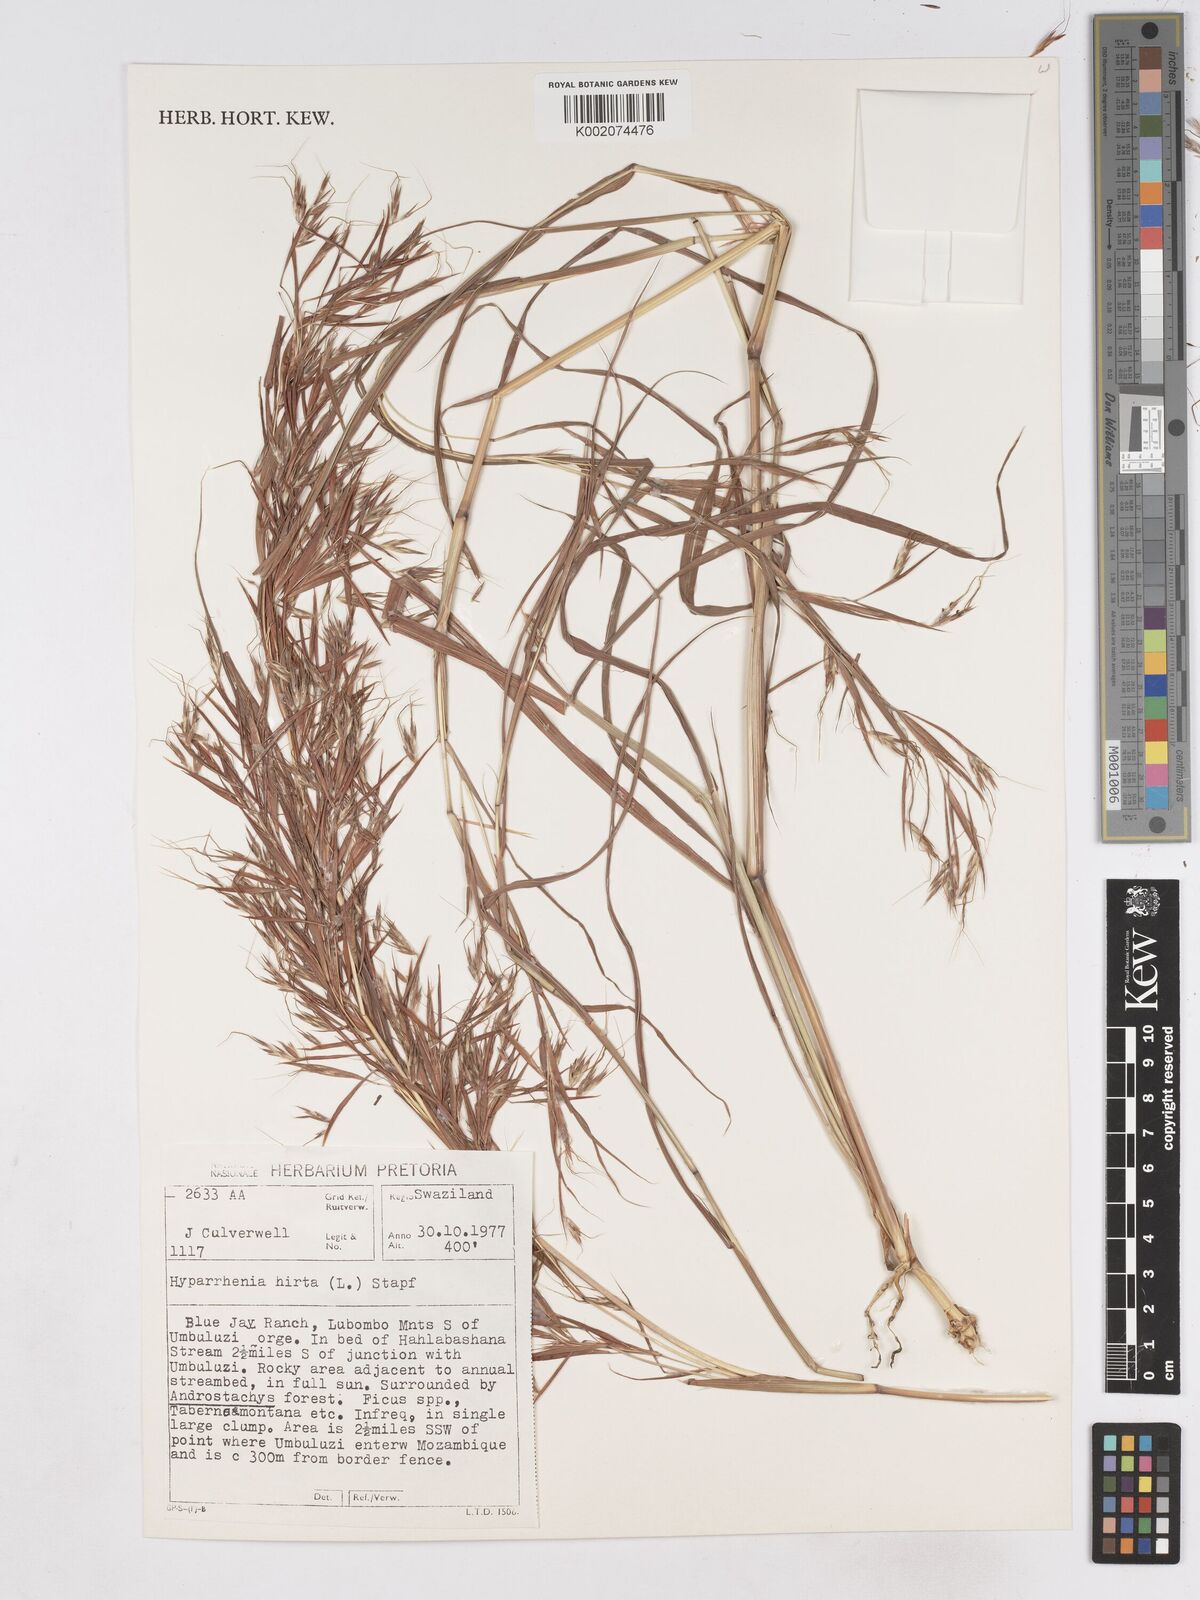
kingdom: Plantae
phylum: Tracheophyta
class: Liliopsida
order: Poales
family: Poaceae
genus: Hyparrhenia
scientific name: Hyparrhenia hirta
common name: Thatching grass
